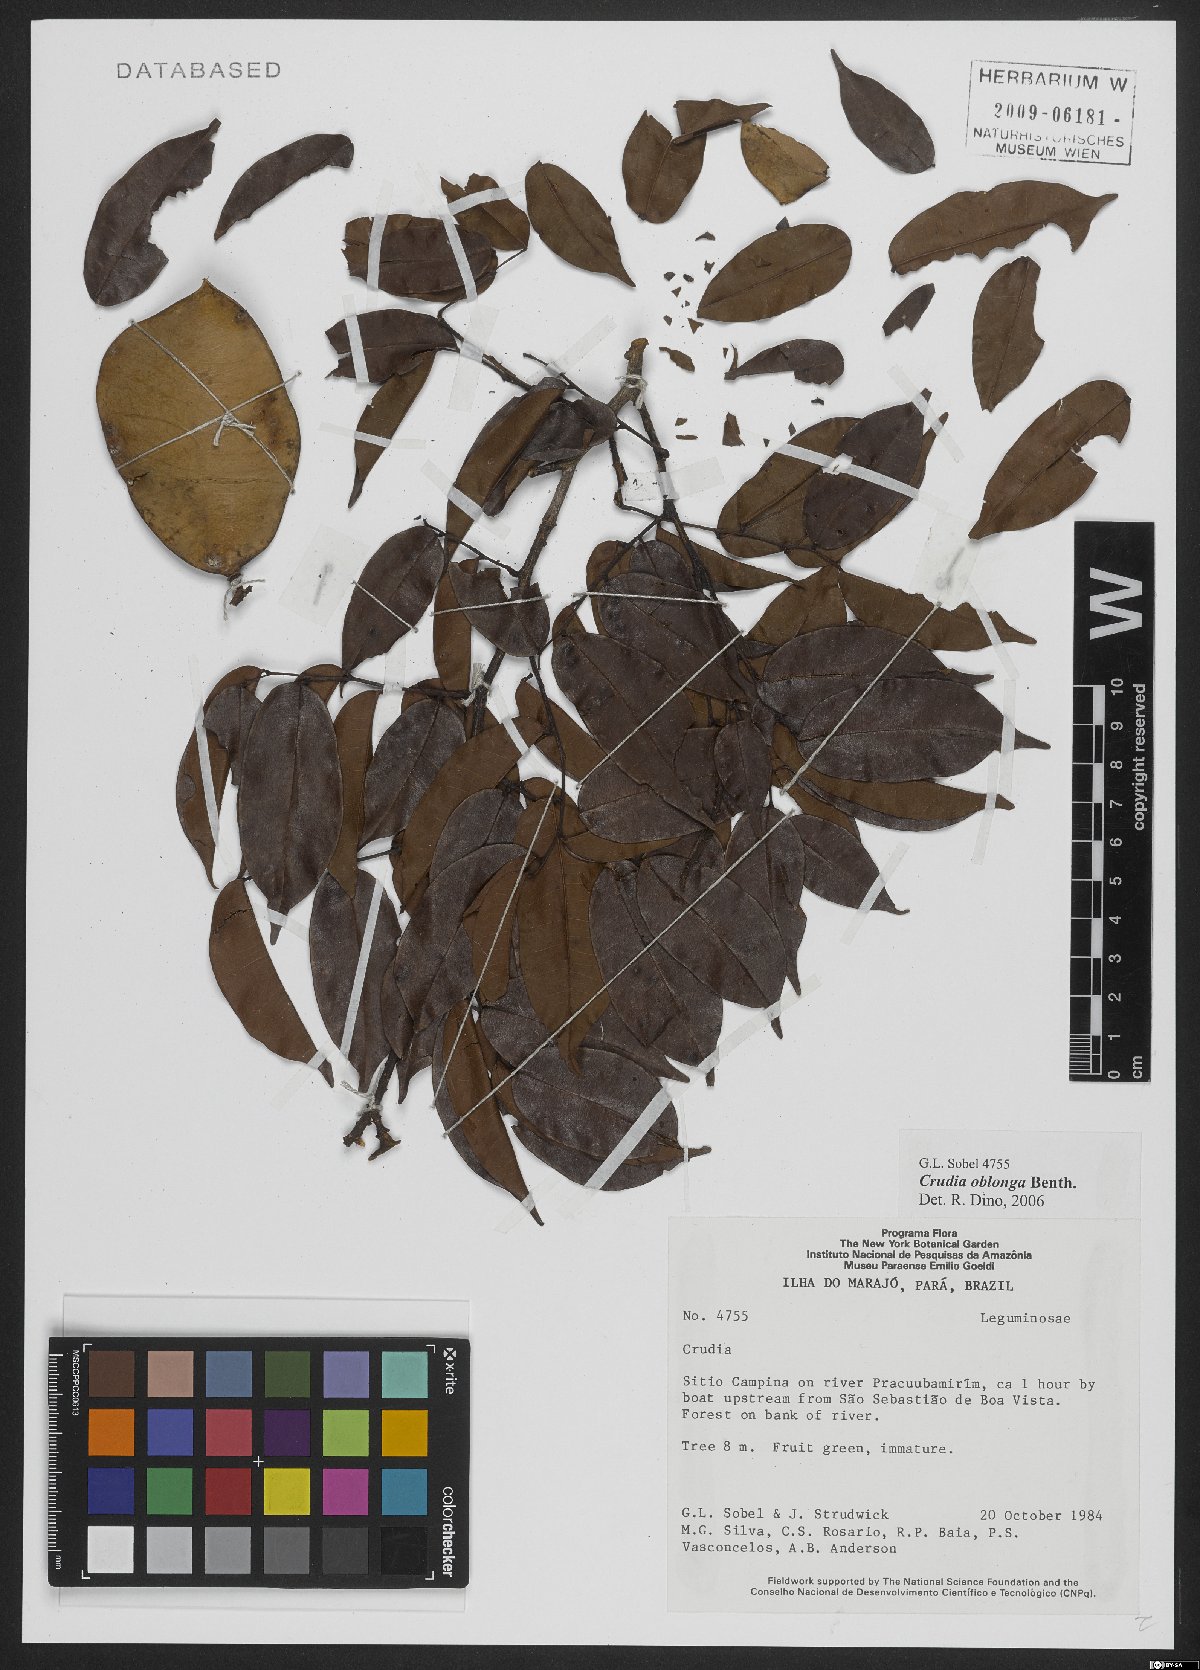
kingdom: Plantae
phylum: Tracheophyta
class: Magnoliopsida
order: Fabales
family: Fabaceae
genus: Crudia
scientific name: Crudia oblonga
